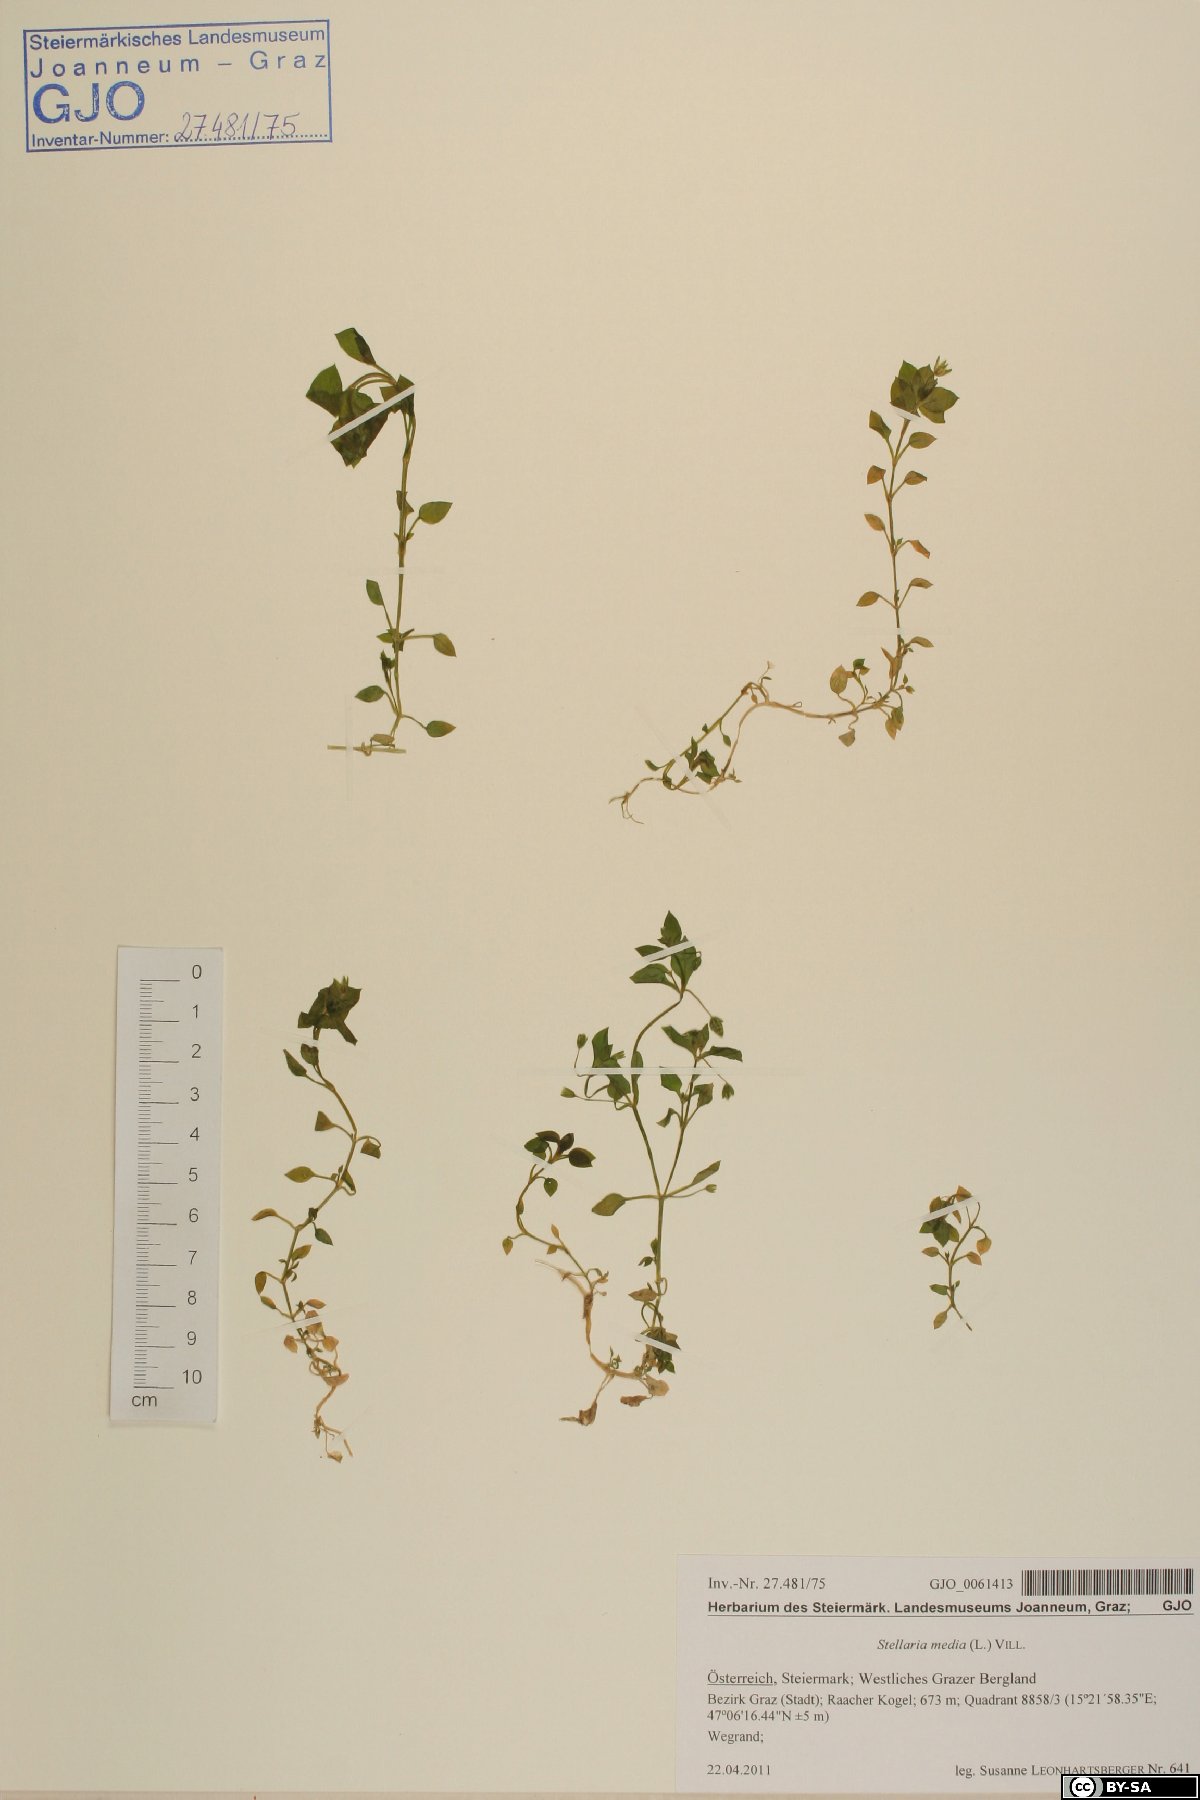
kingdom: Plantae
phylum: Tracheophyta
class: Magnoliopsida
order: Caryophyllales
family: Caryophyllaceae
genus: Stellaria
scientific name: Stellaria media
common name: Common chickweed
